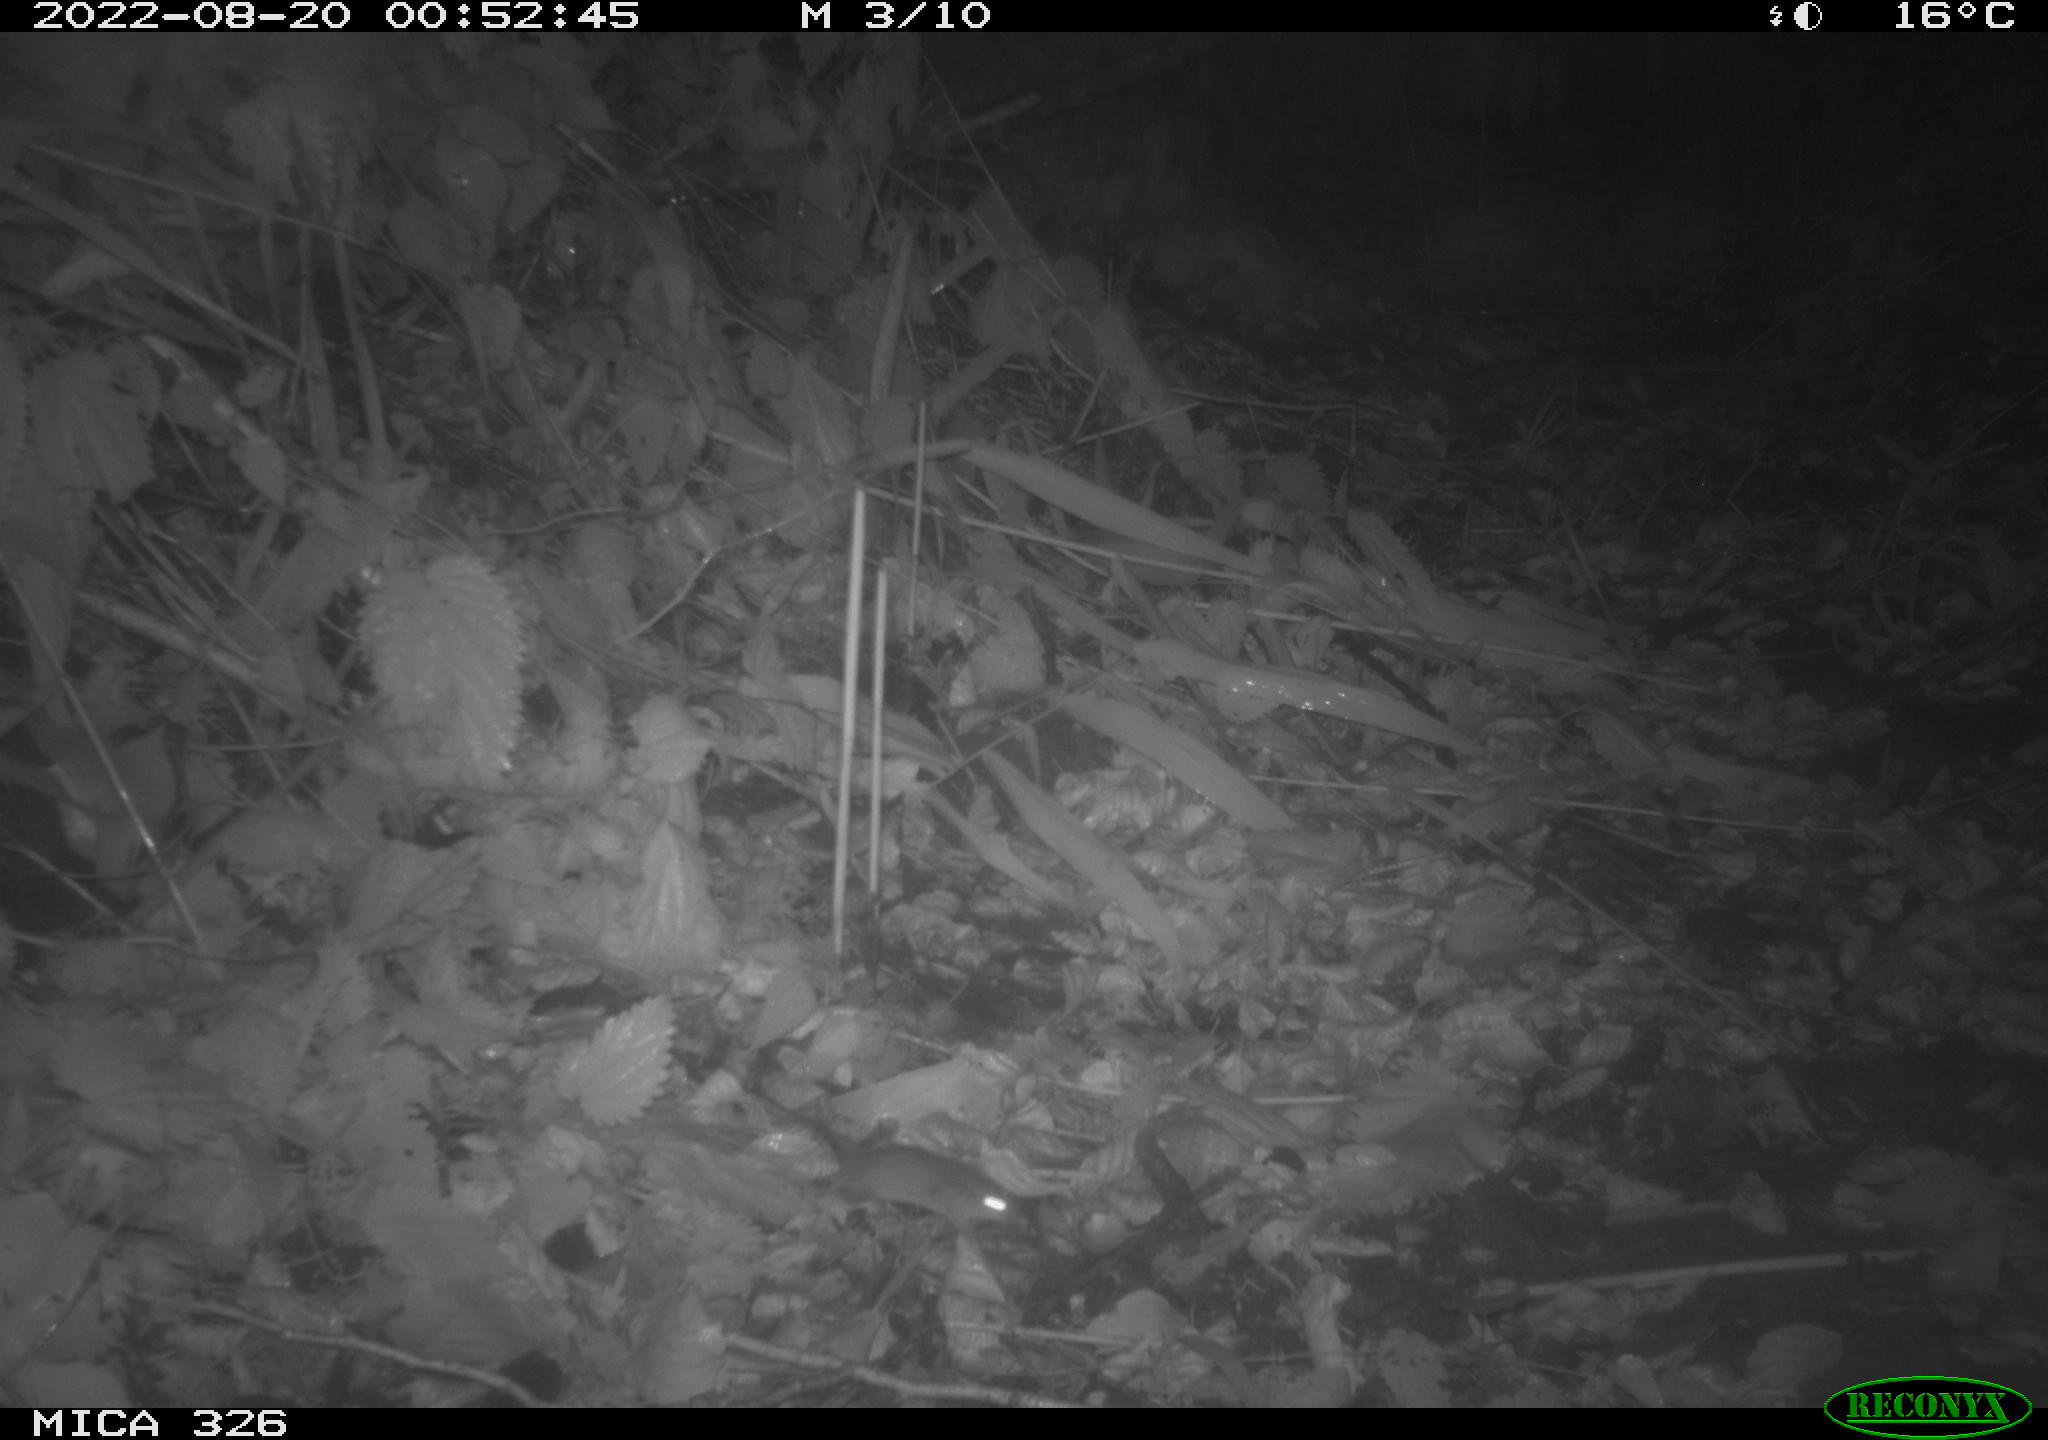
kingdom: Animalia
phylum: Chordata
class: Mammalia
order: Rodentia
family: Cricetidae
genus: Arvicola
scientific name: Arvicola amphibius
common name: European water vole
